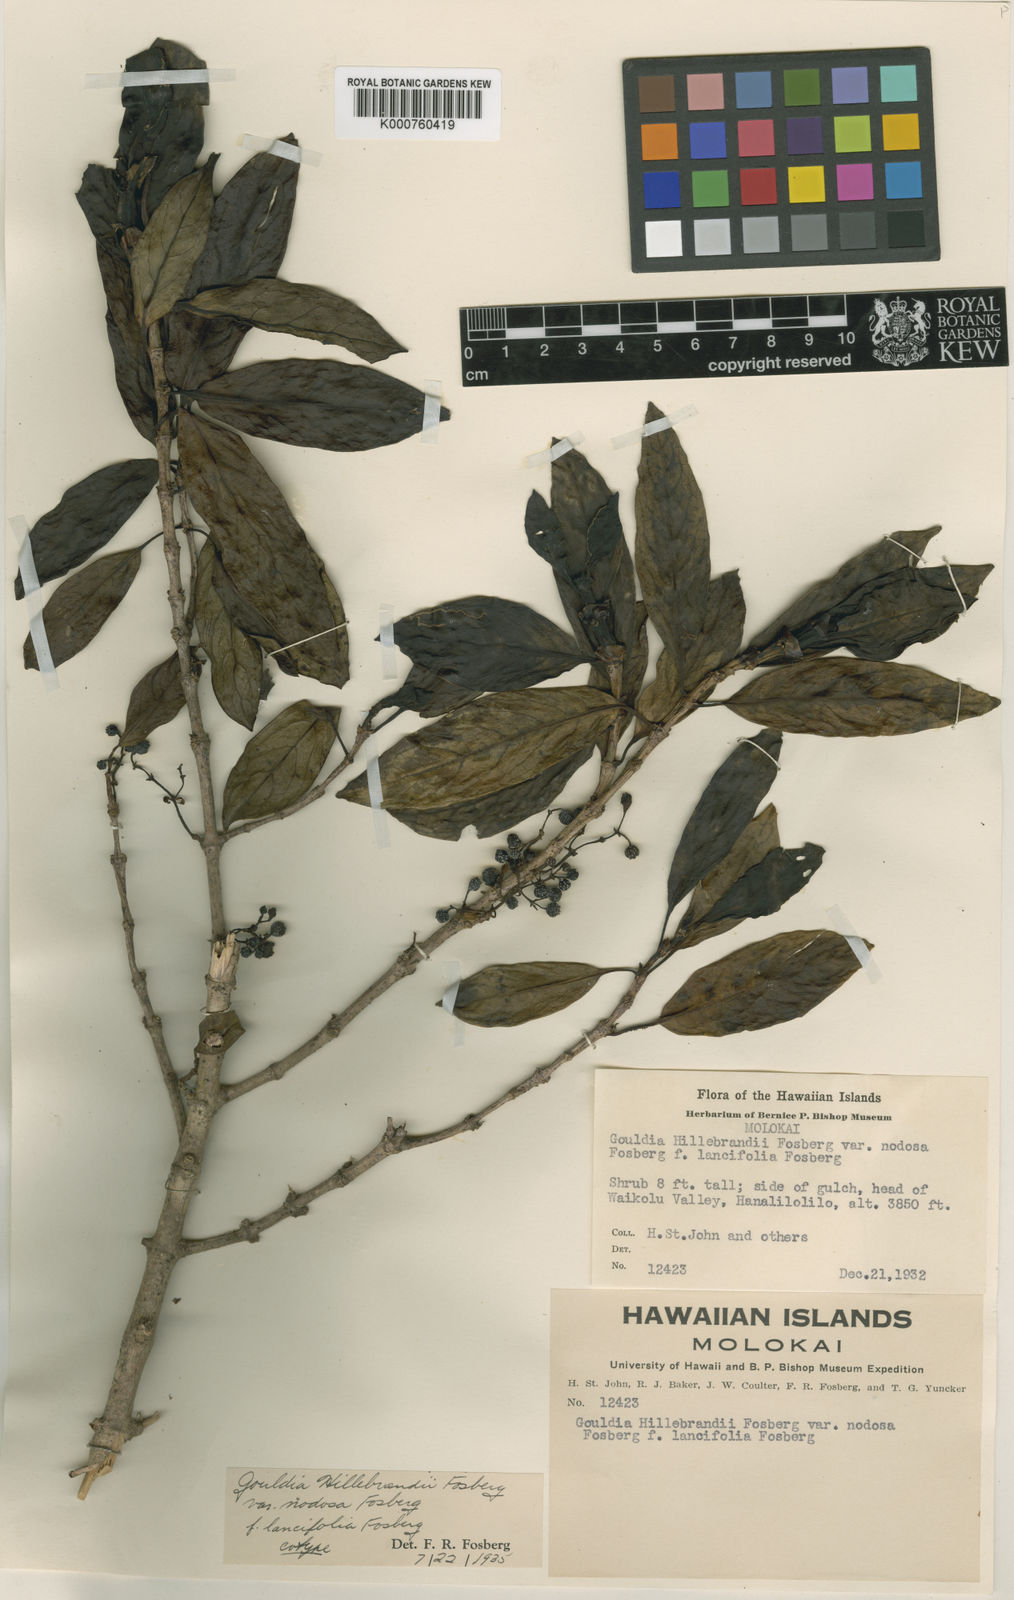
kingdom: Plantae
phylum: Tracheophyta
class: Magnoliopsida
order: Gentianales
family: Rubiaceae
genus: Kadua
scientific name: Kadua axillaris
